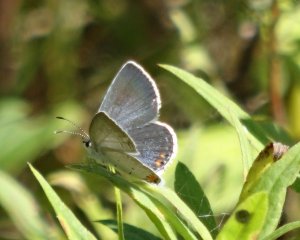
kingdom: Animalia
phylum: Arthropoda
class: Insecta
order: Lepidoptera
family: Lycaenidae
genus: Elkalyce
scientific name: Elkalyce comyntas
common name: Eastern Tailed-Blue
